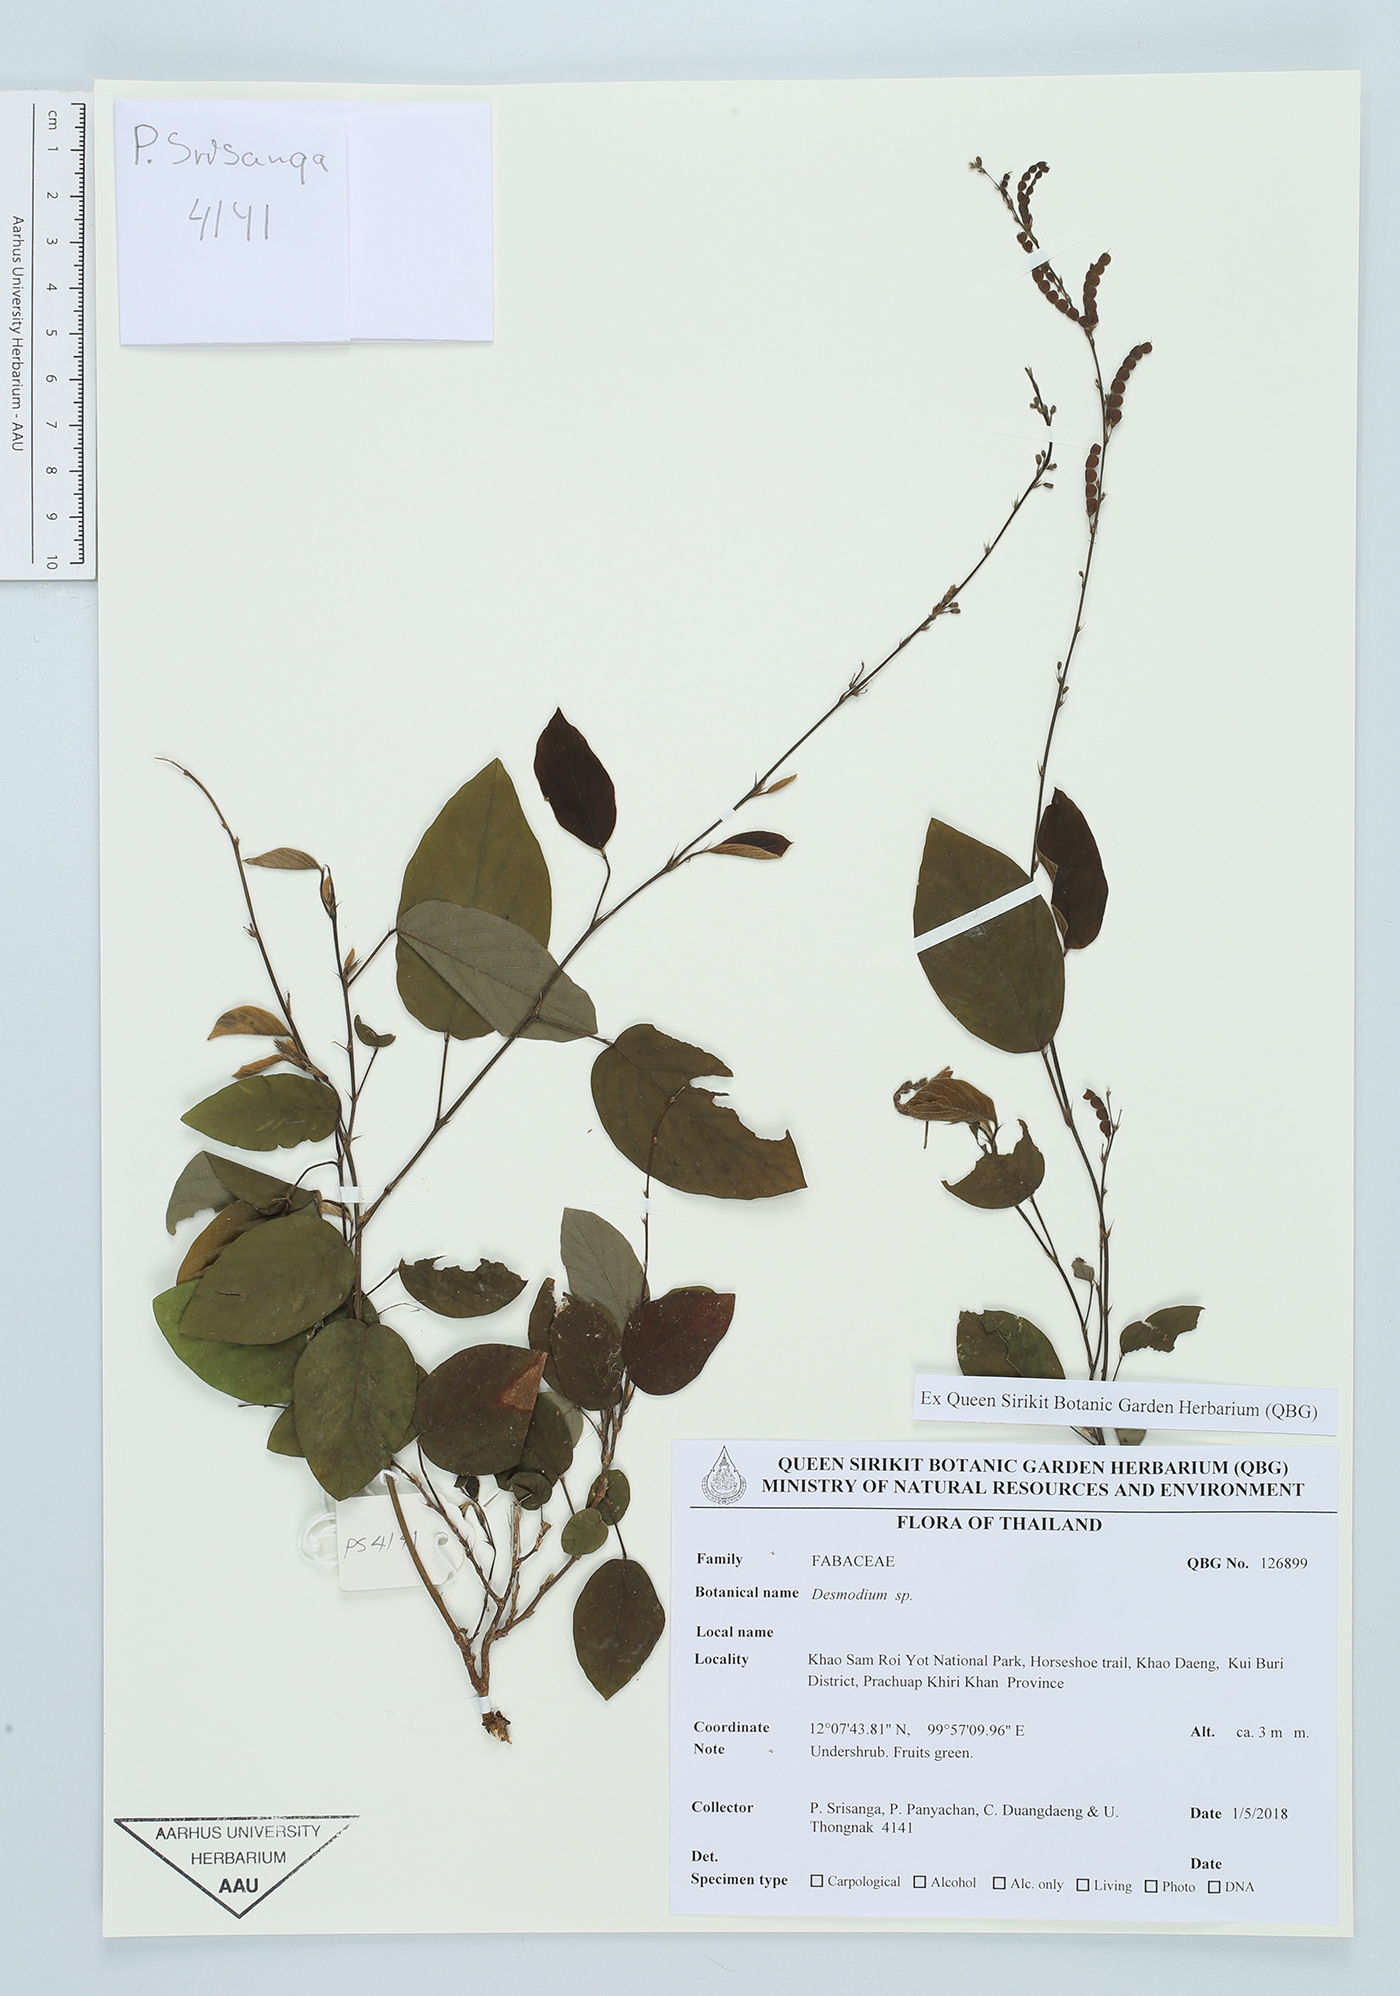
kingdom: Plantae
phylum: Tracheophyta
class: Magnoliopsida
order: Fabales
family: Fabaceae
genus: Desmodium
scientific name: Desmodium
